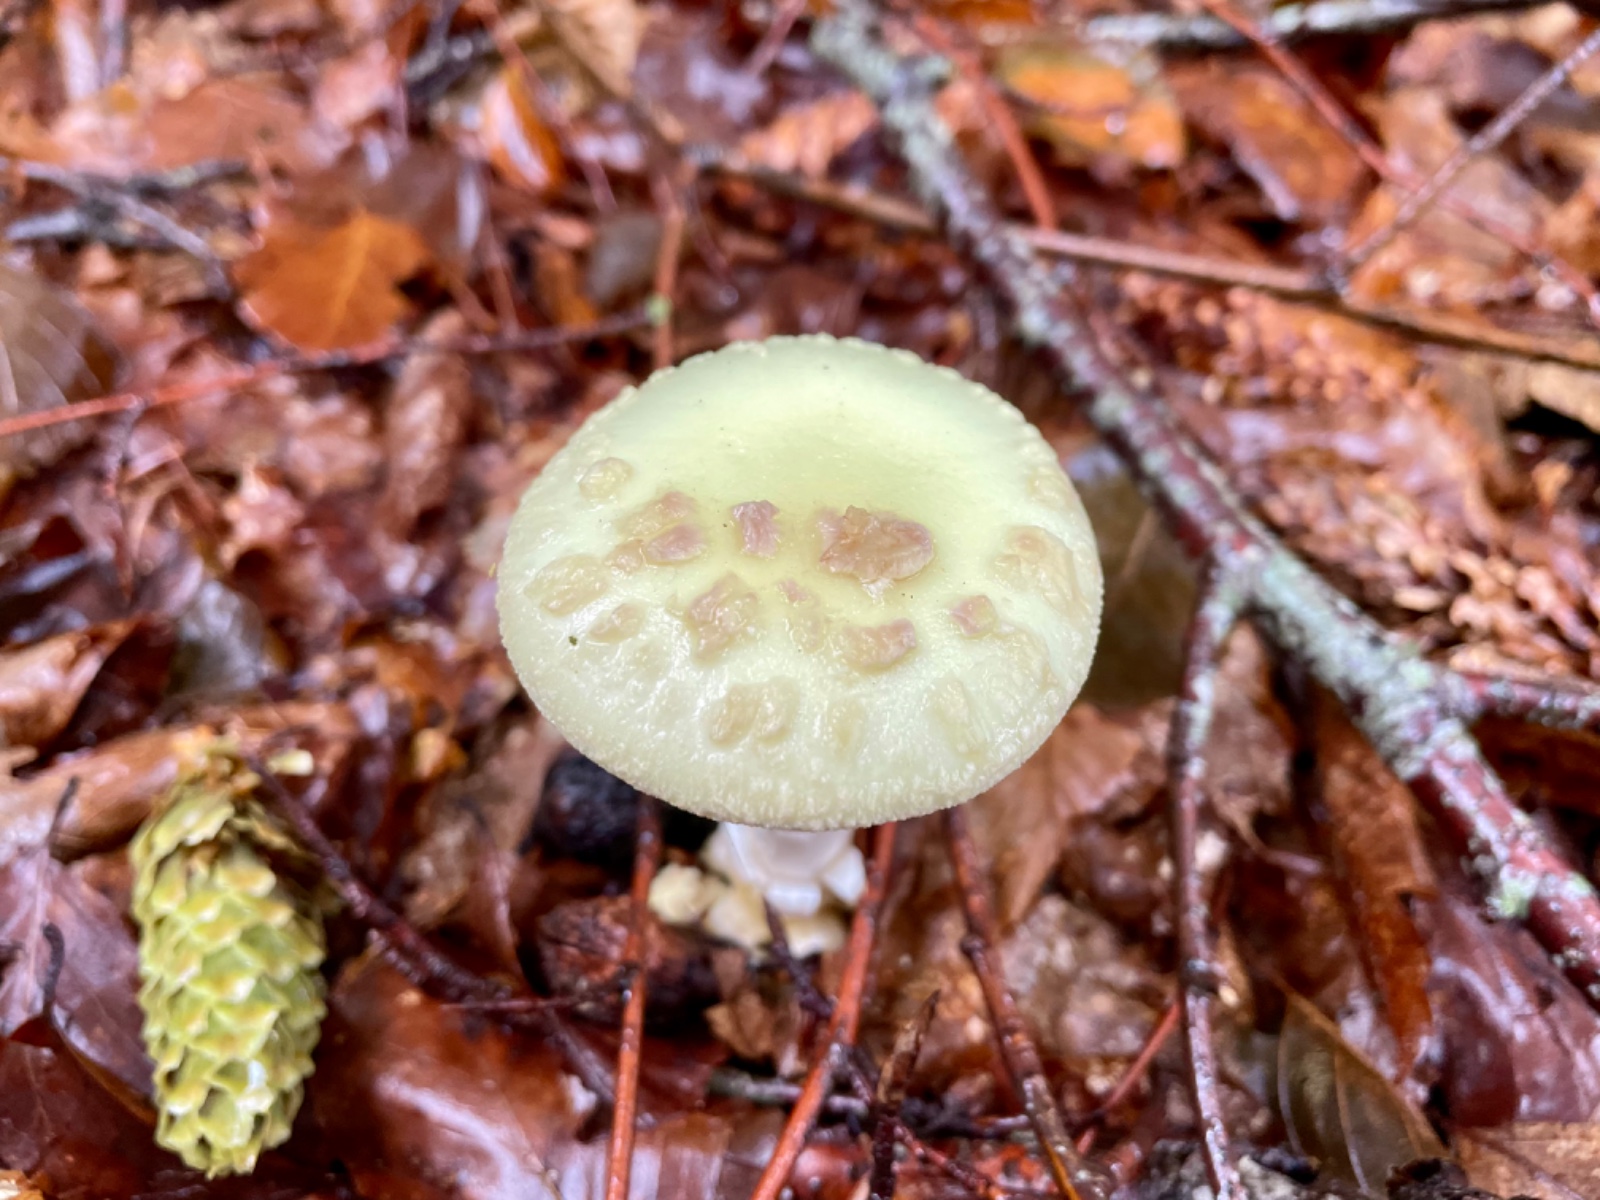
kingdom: Fungi
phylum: Basidiomycota
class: Agaricomycetes
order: Agaricales
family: Amanitaceae
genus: Amanita
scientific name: Amanita citrina
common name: kugleknoldet fluesvamp
